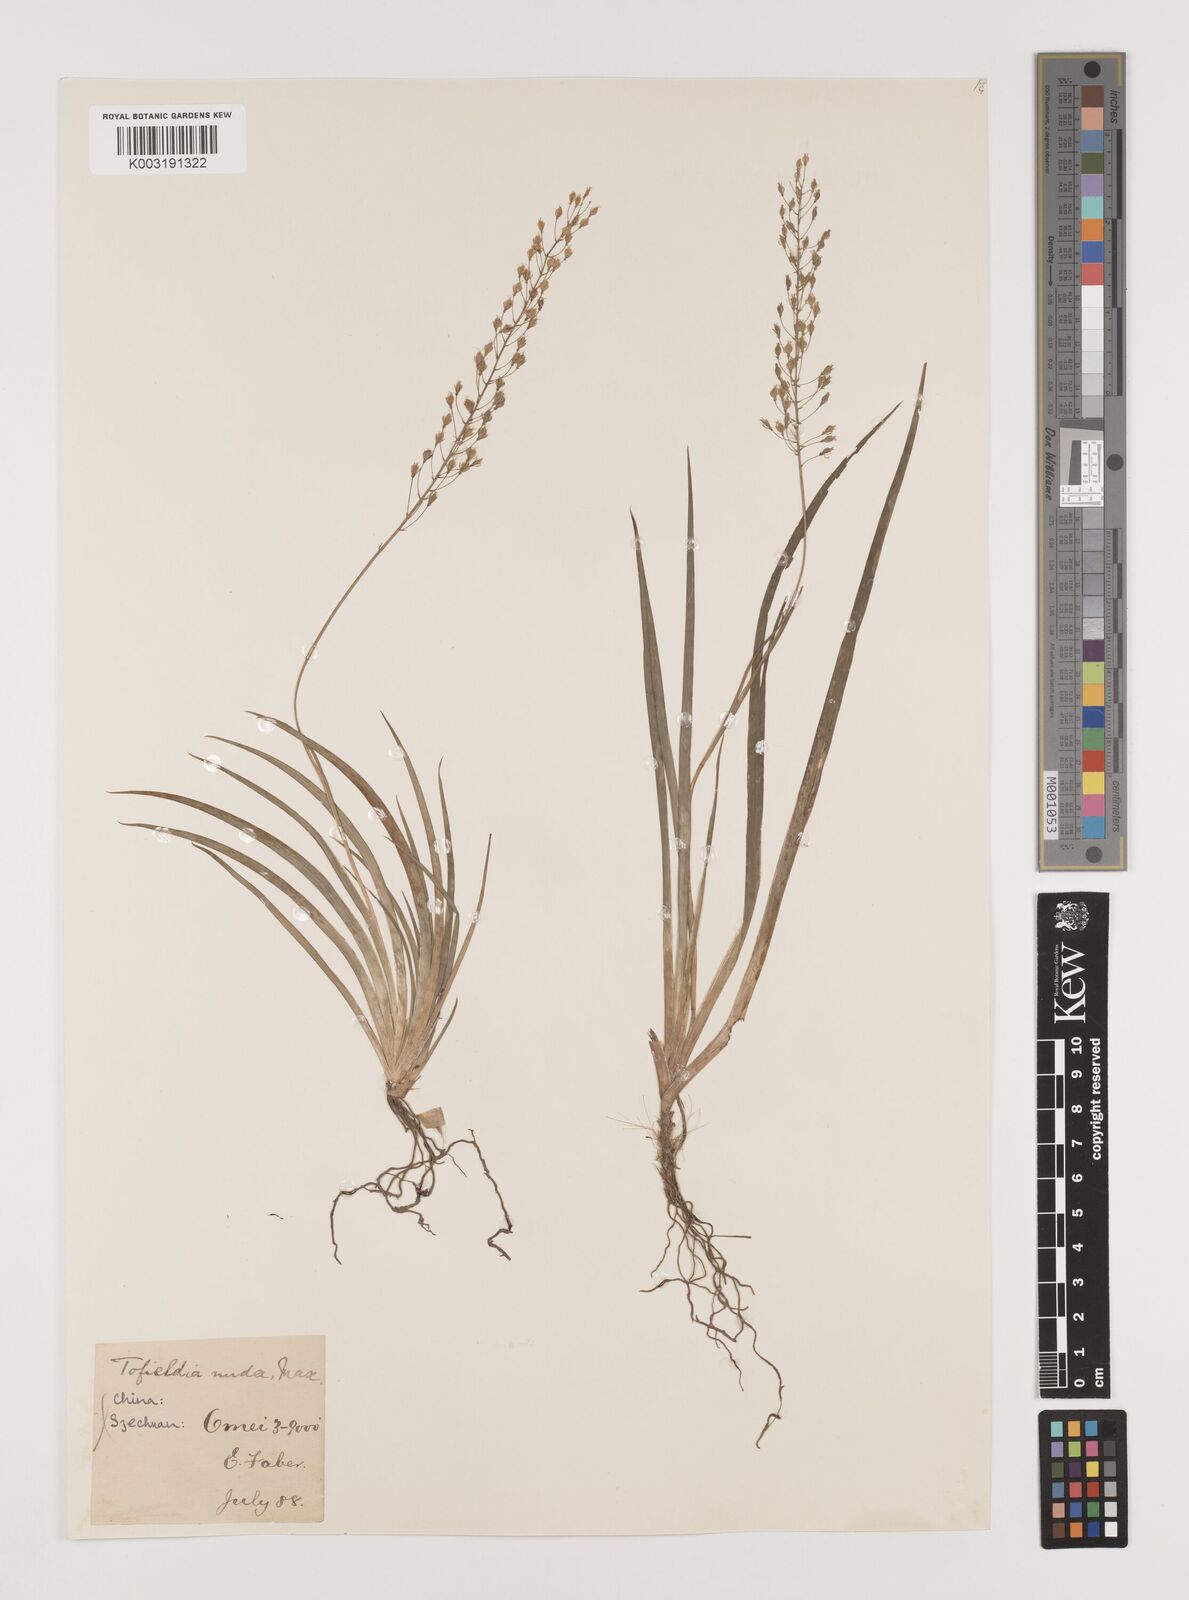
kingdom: Plantae
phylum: Tracheophyta
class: Liliopsida
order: Alismatales
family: Tofieldiaceae
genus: Tofieldia
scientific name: Tofieldia nuda
